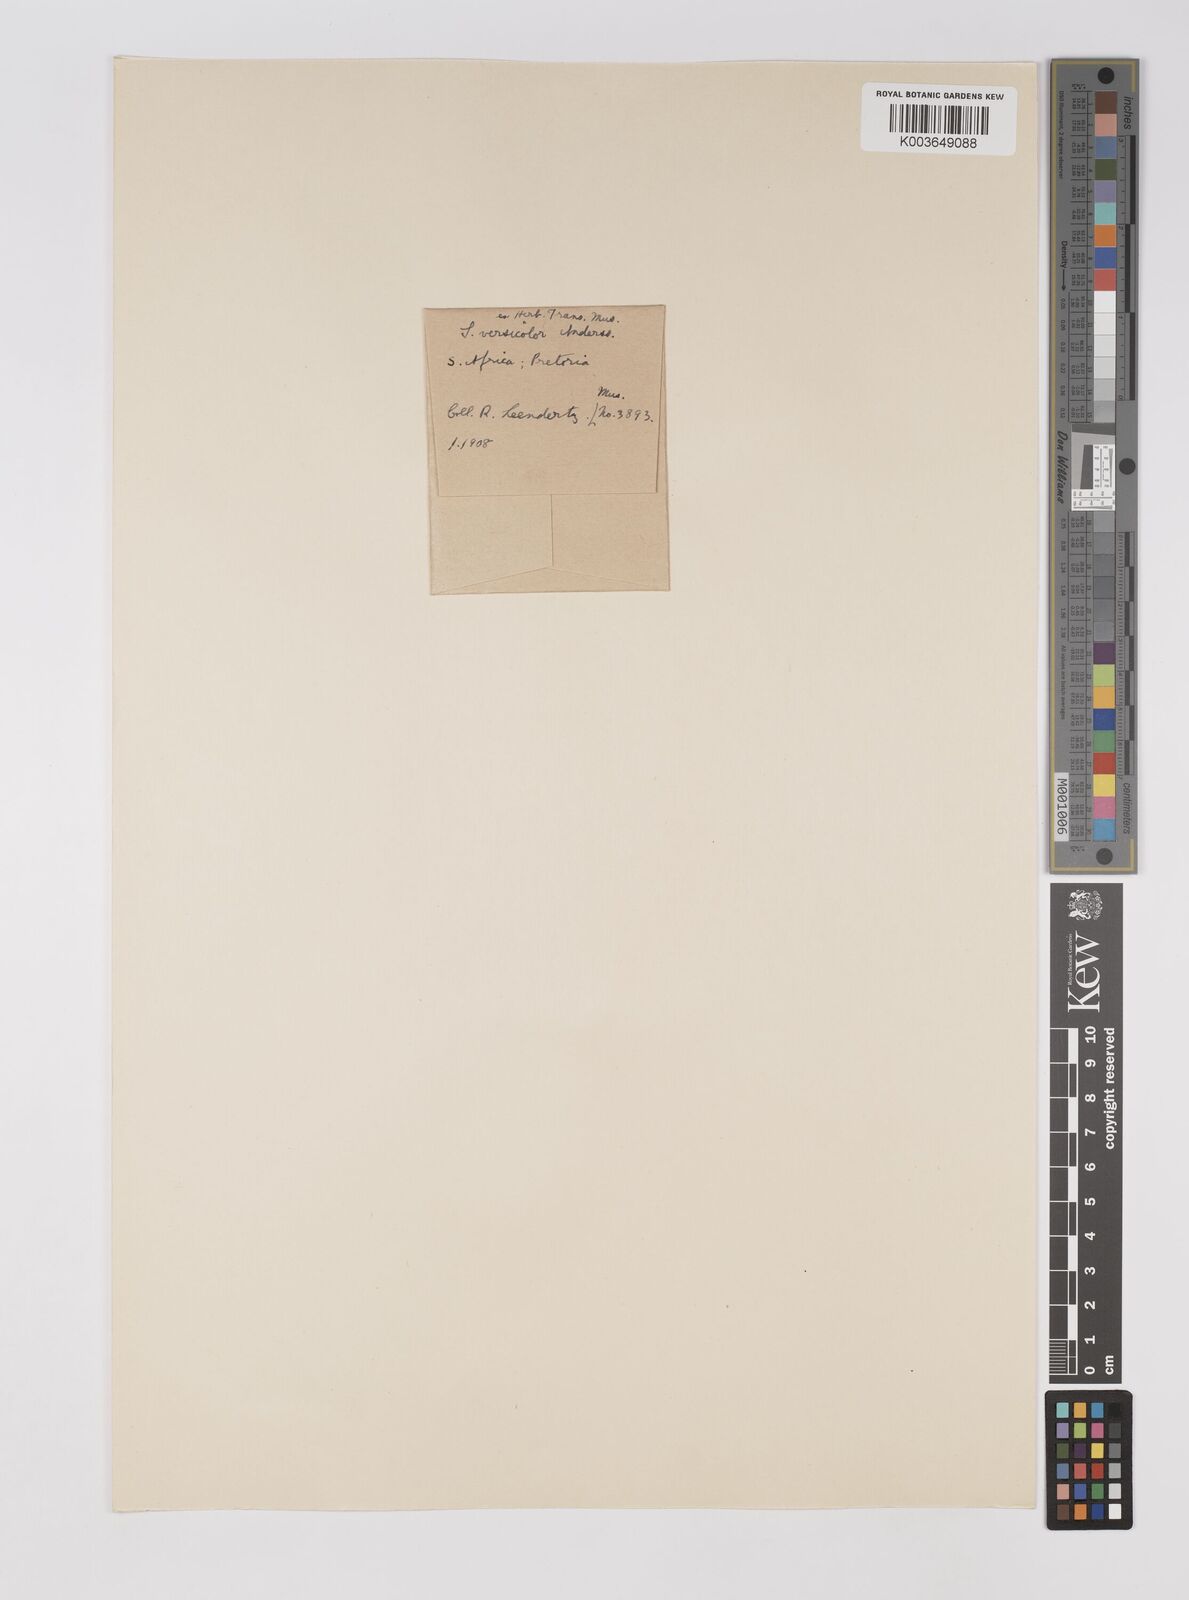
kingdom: Plantae
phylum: Tracheophyta
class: Liliopsida
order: Poales
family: Poaceae
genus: Sarga
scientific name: Sarga versicolor
